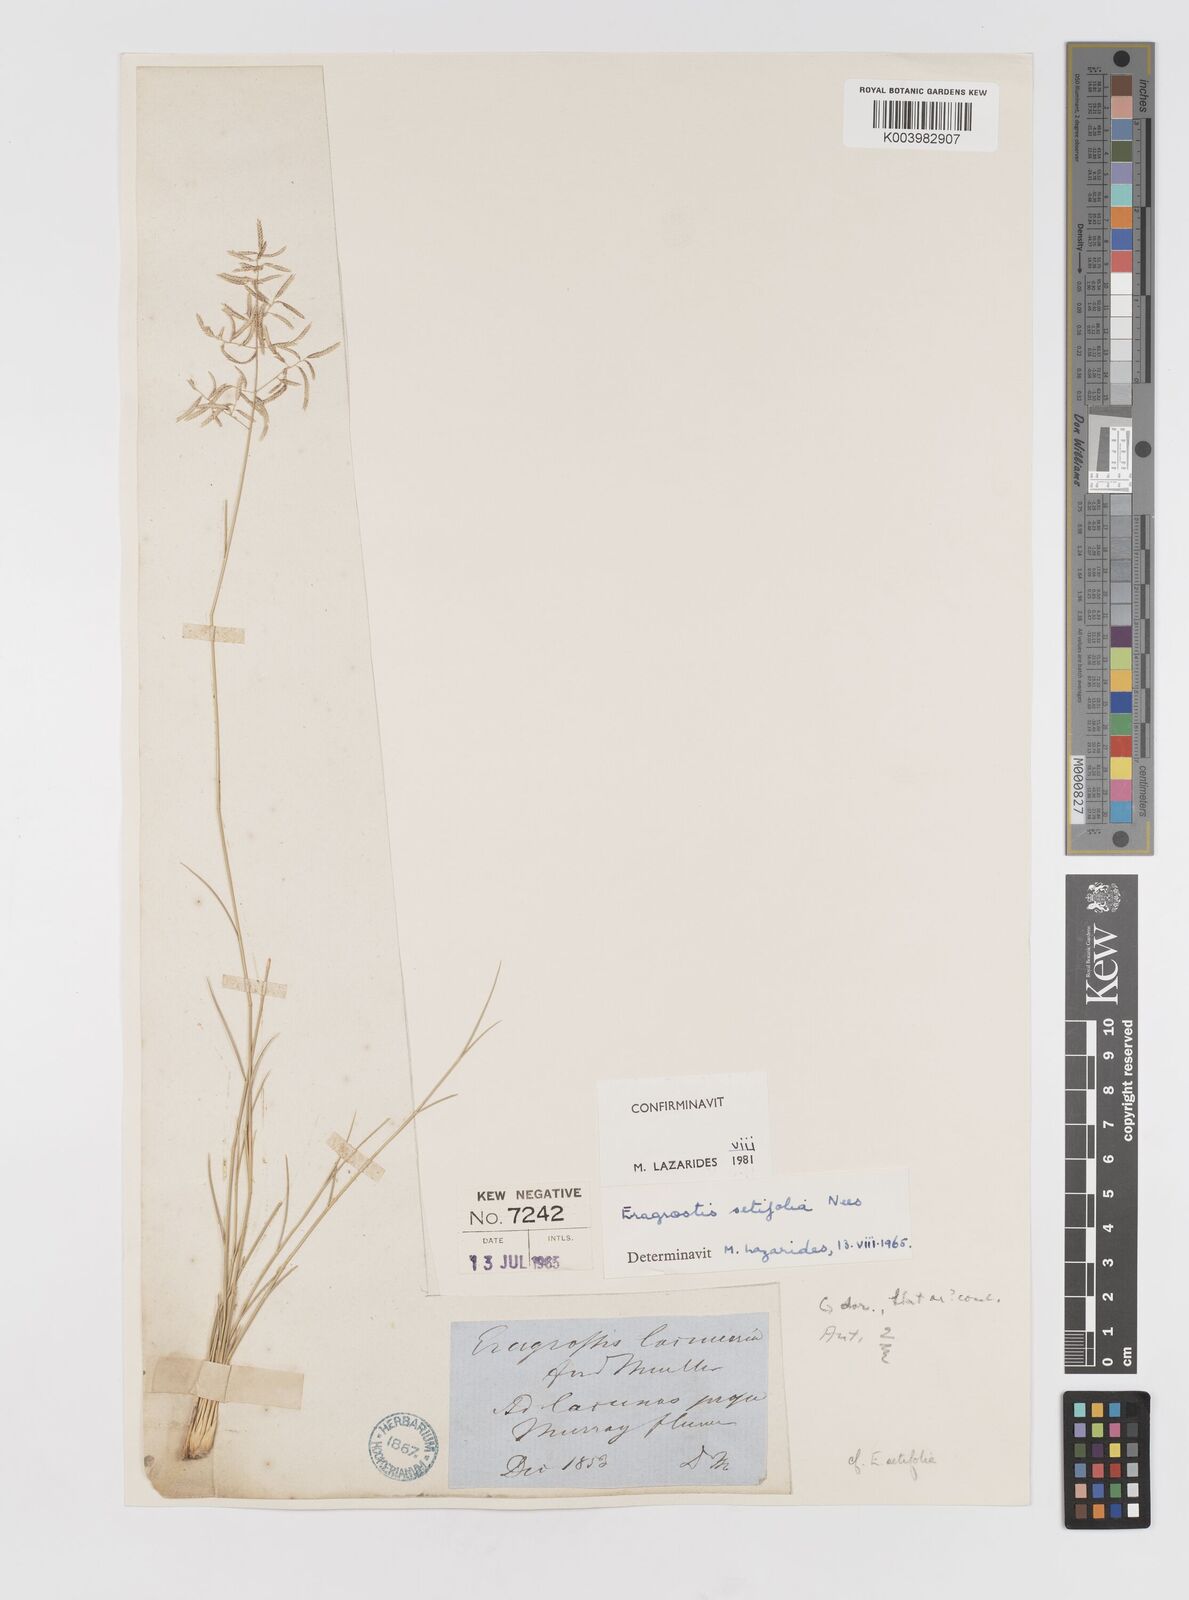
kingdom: Plantae
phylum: Tracheophyta
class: Liliopsida
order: Poales
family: Poaceae
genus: Eragrostis
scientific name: Eragrostis setifolia
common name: Bristleleaf lovegrass
